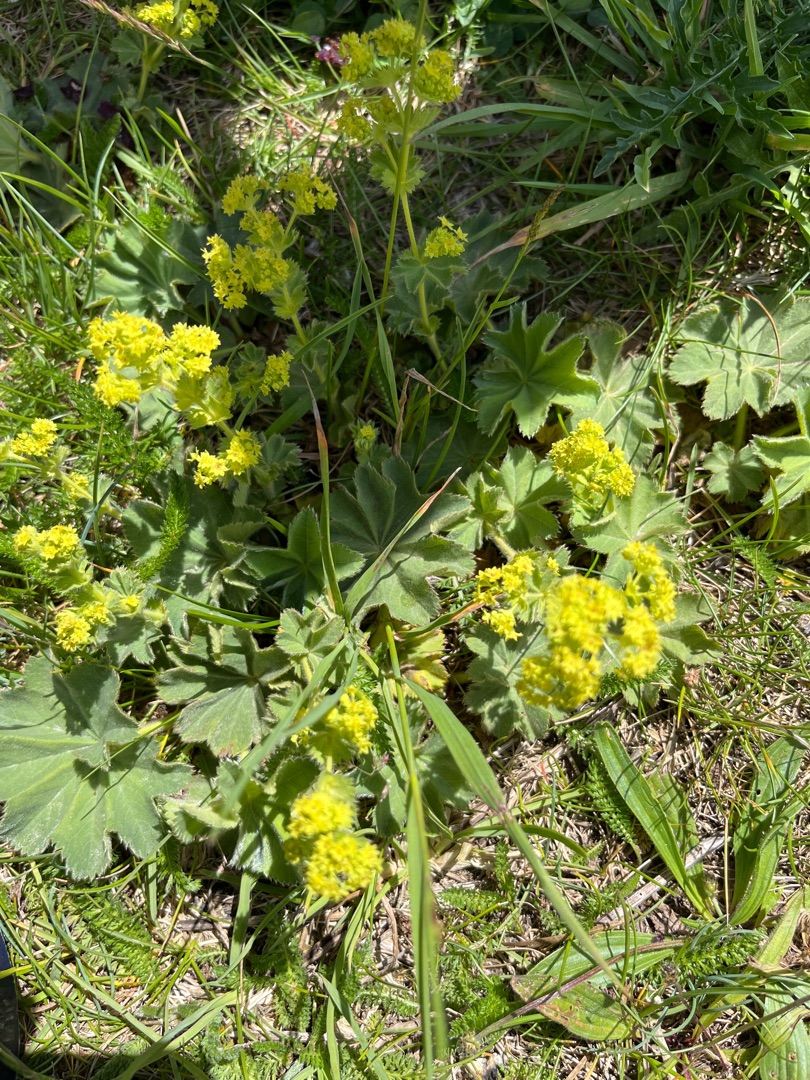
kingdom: Plantae
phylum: Tracheophyta
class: Magnoliopsida
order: Rosales
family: Rosaceae
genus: Alchemilla
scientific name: Alchemilla mollis
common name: Lådden løvefod
